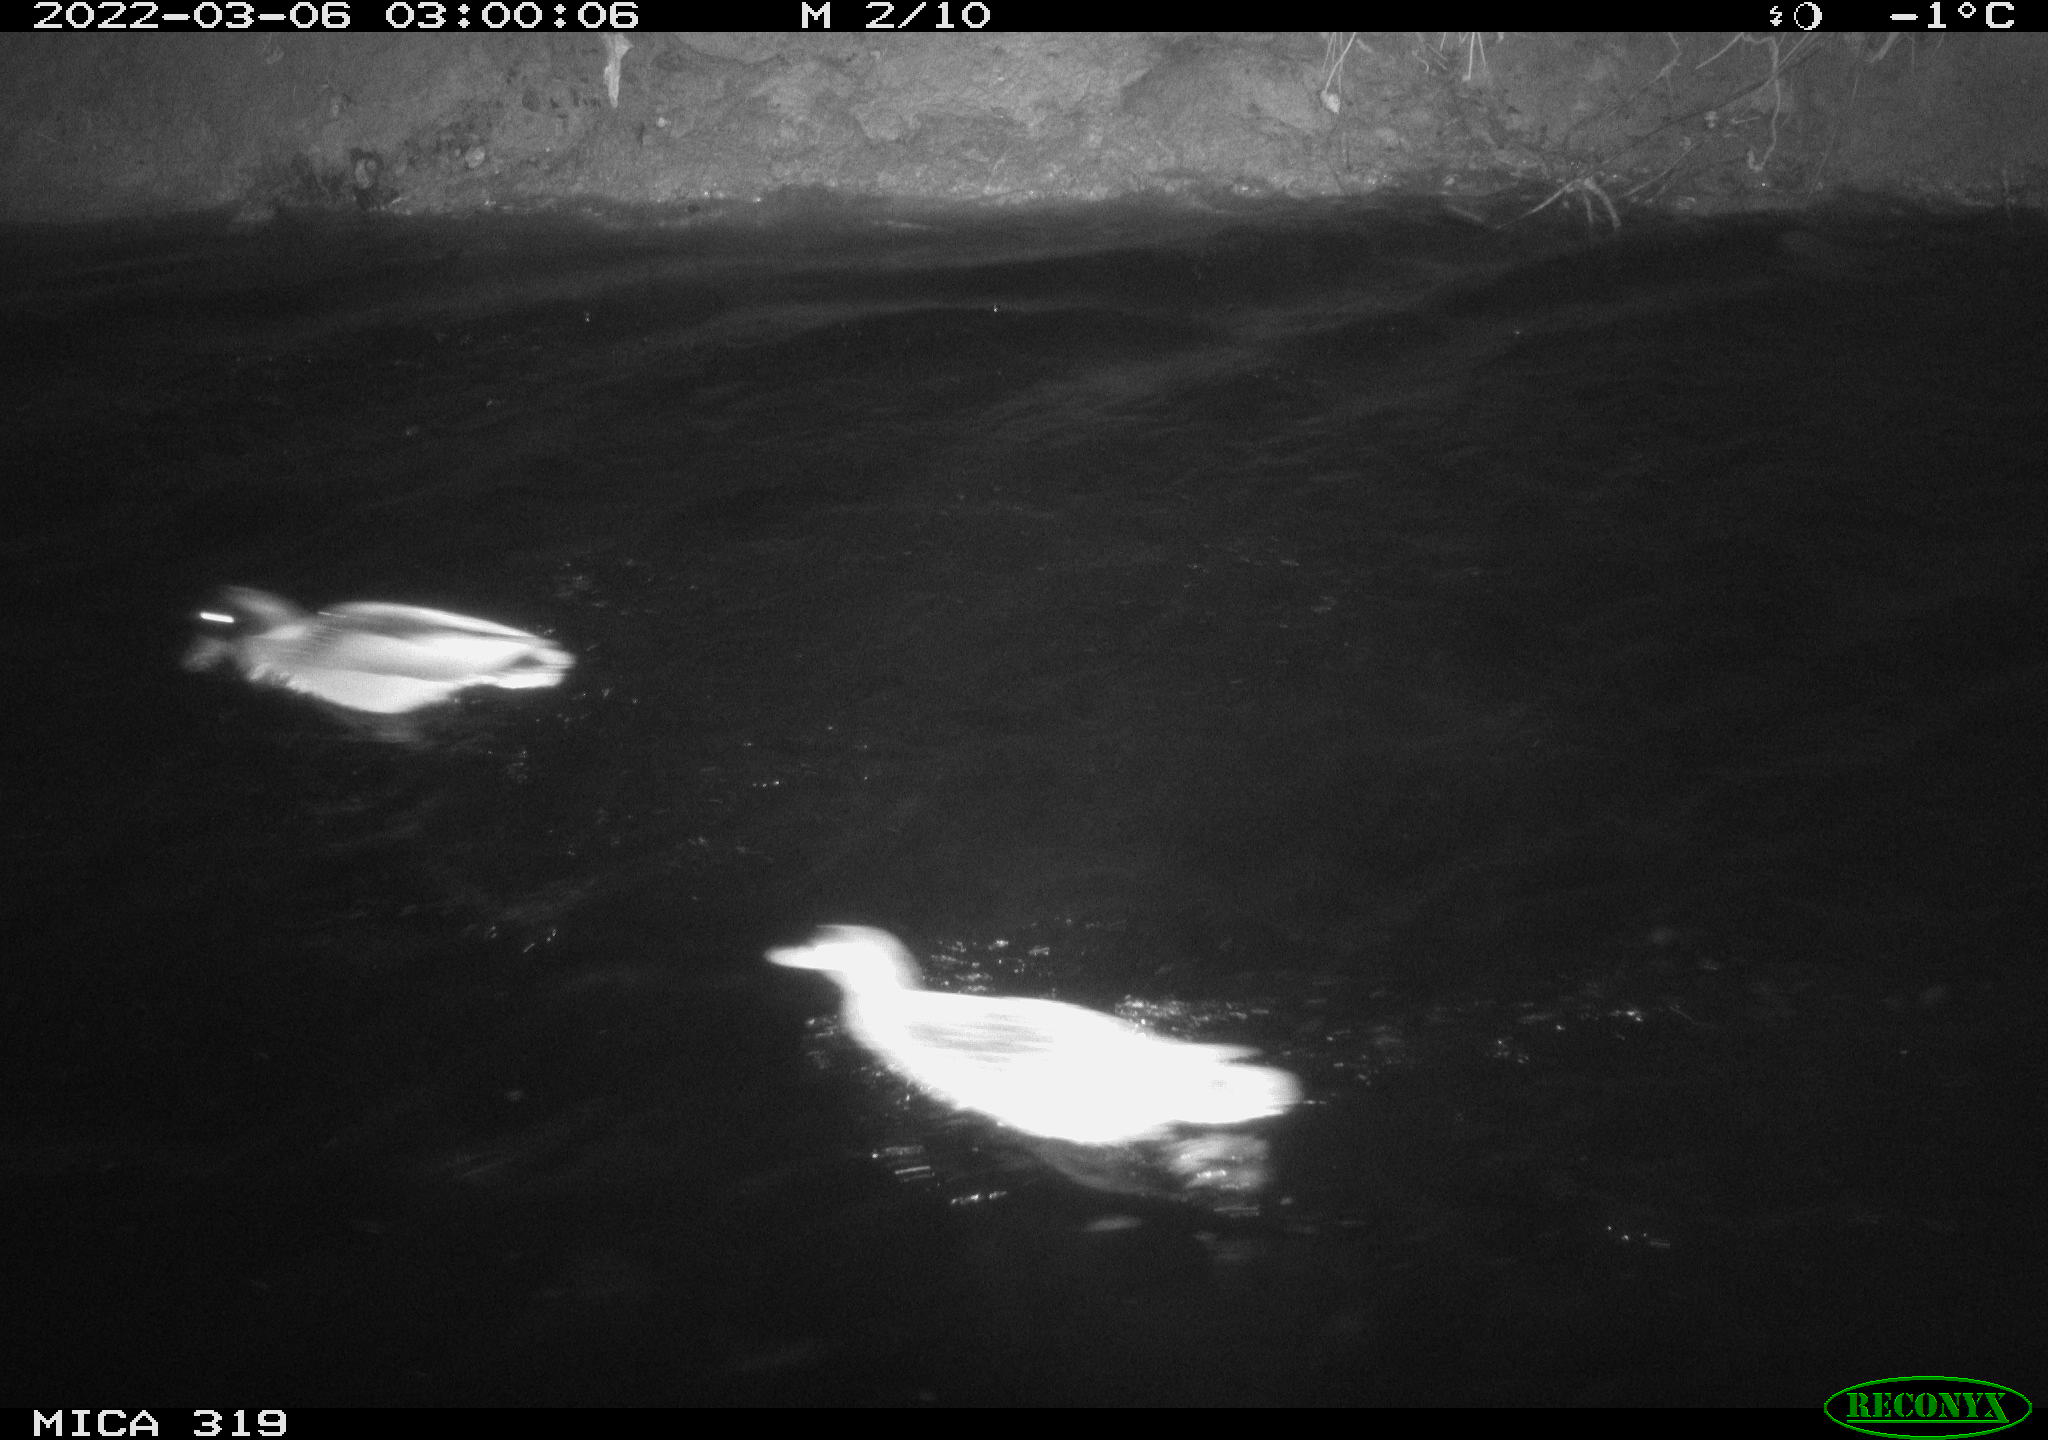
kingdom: Animalia
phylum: Chordata
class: Aves
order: Anseriformes
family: Anatidae
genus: Anas
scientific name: Anas platyrhynchos
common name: Mallard
